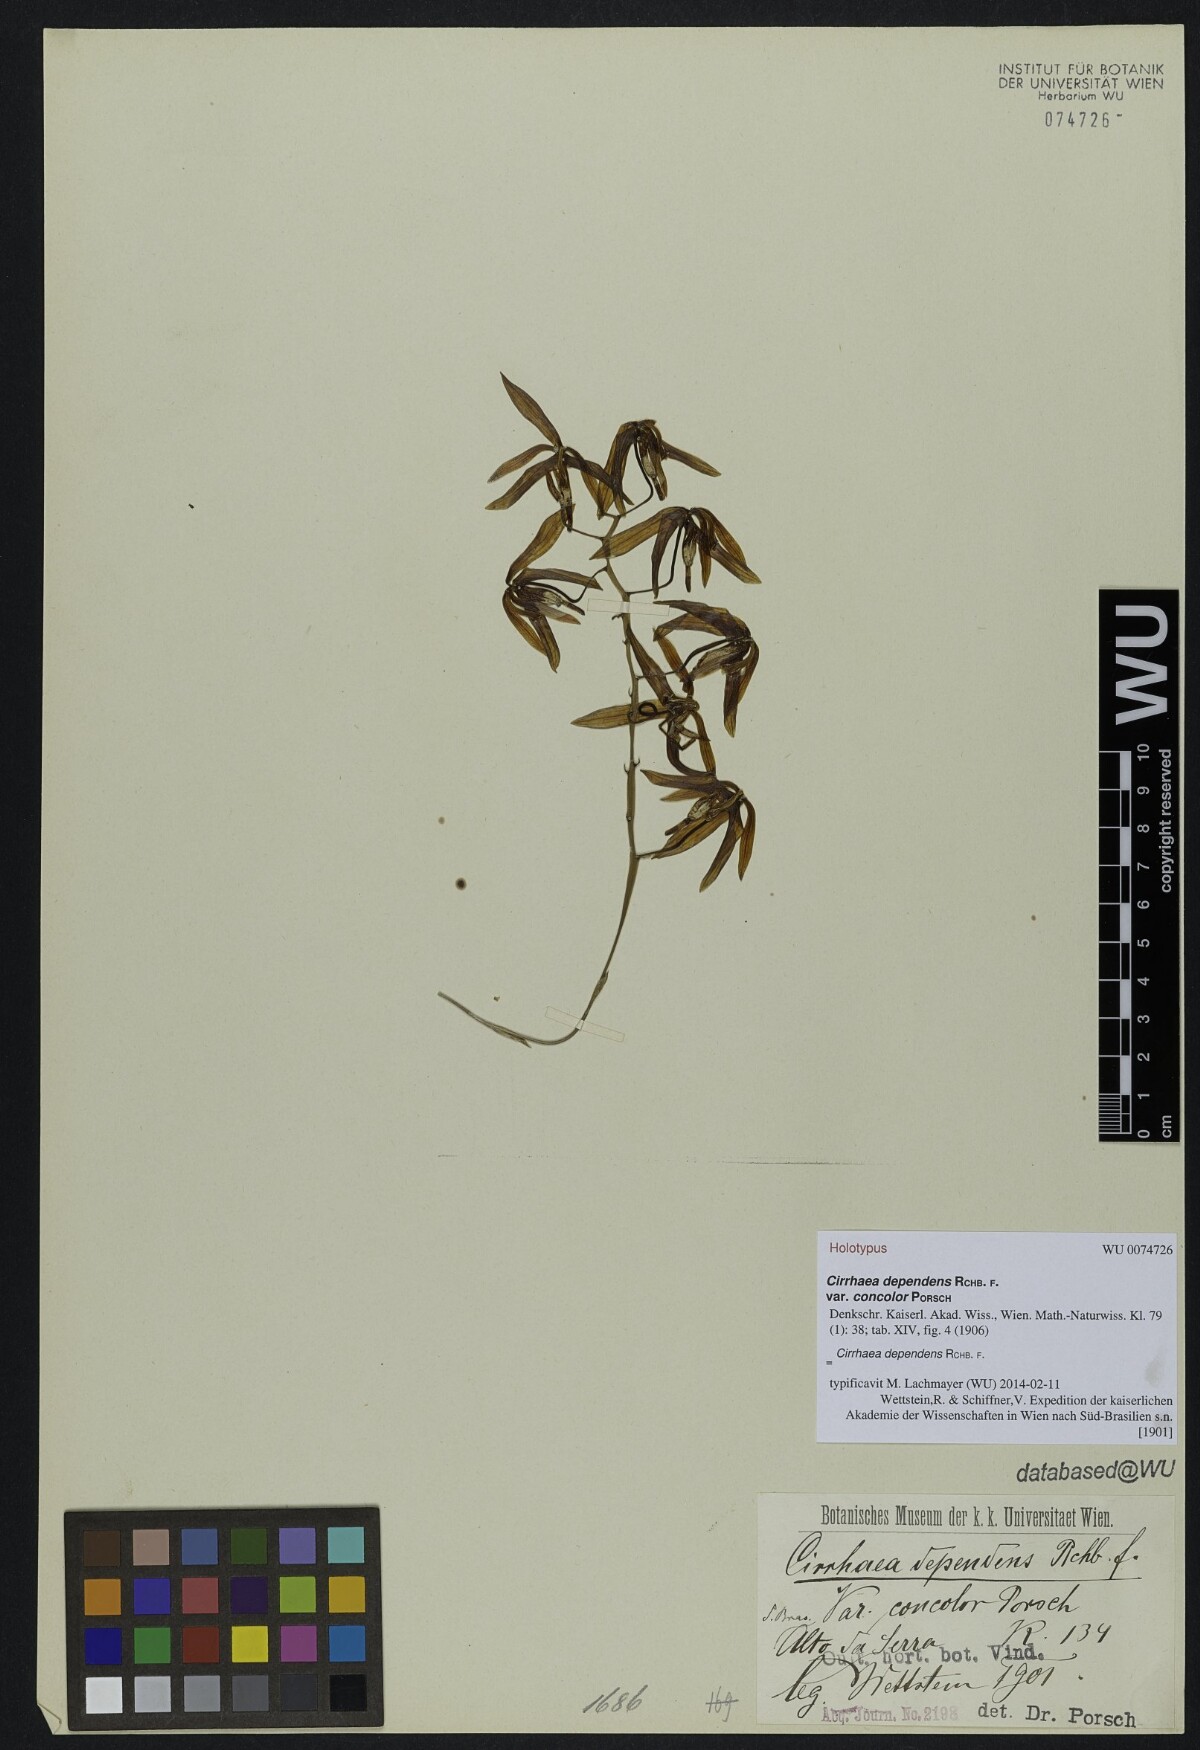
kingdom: Plantae
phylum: Tracheophyta
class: Liliopsida
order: Asparagales
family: Orchidaceae
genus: Cirrhaea
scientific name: Cirrhaea dependens
